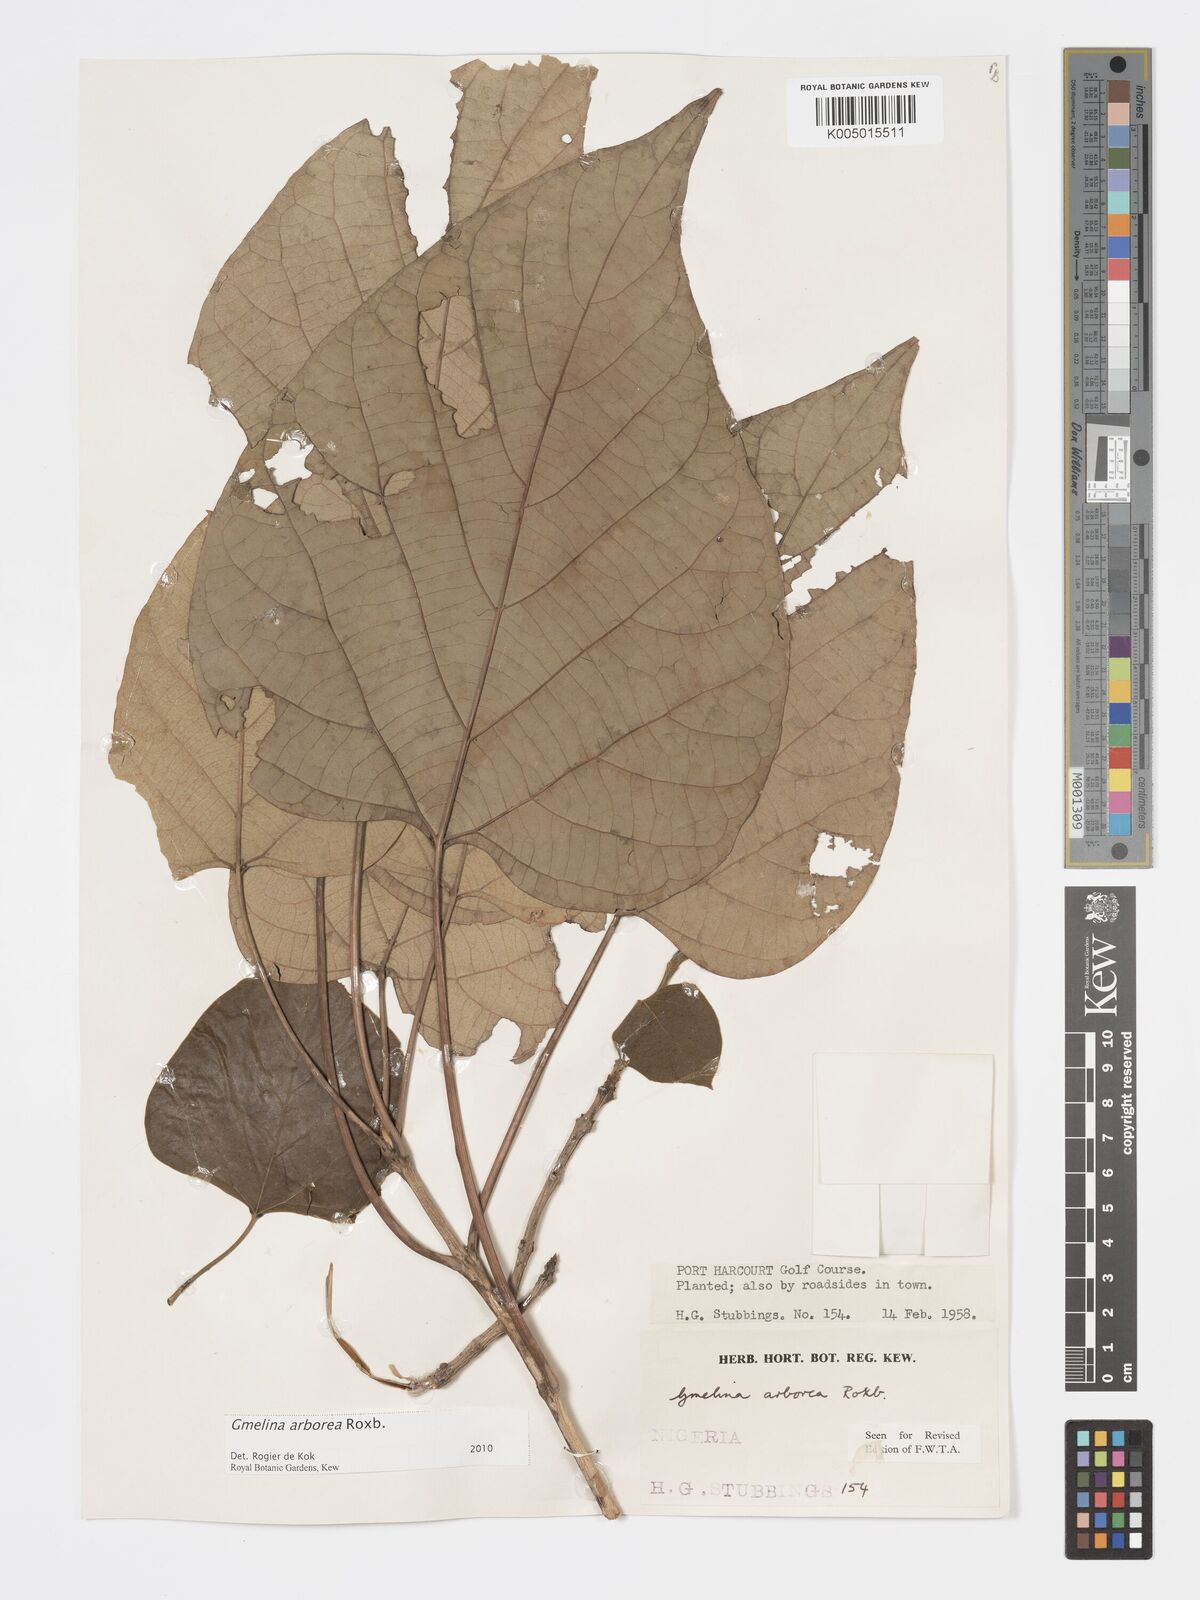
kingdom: Plantae
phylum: Tracheophyta
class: Magnoliopsida
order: Lamiales
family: Lamiaceae
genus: Gmelina
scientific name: Gmelina arborea
